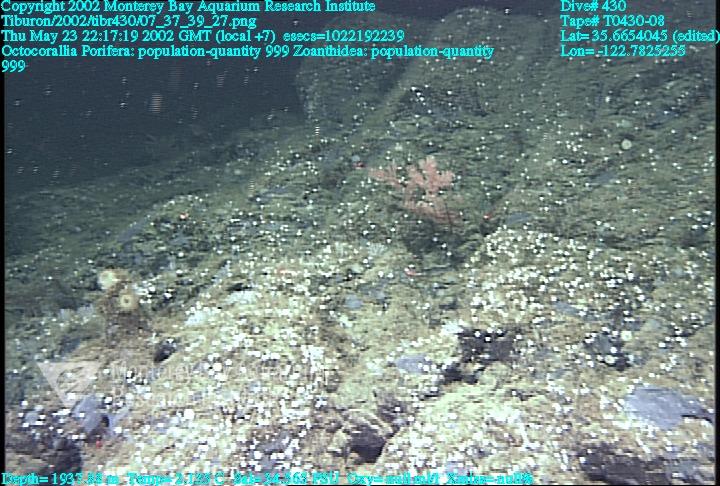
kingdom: Animalia
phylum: Porifera
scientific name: Porifera
